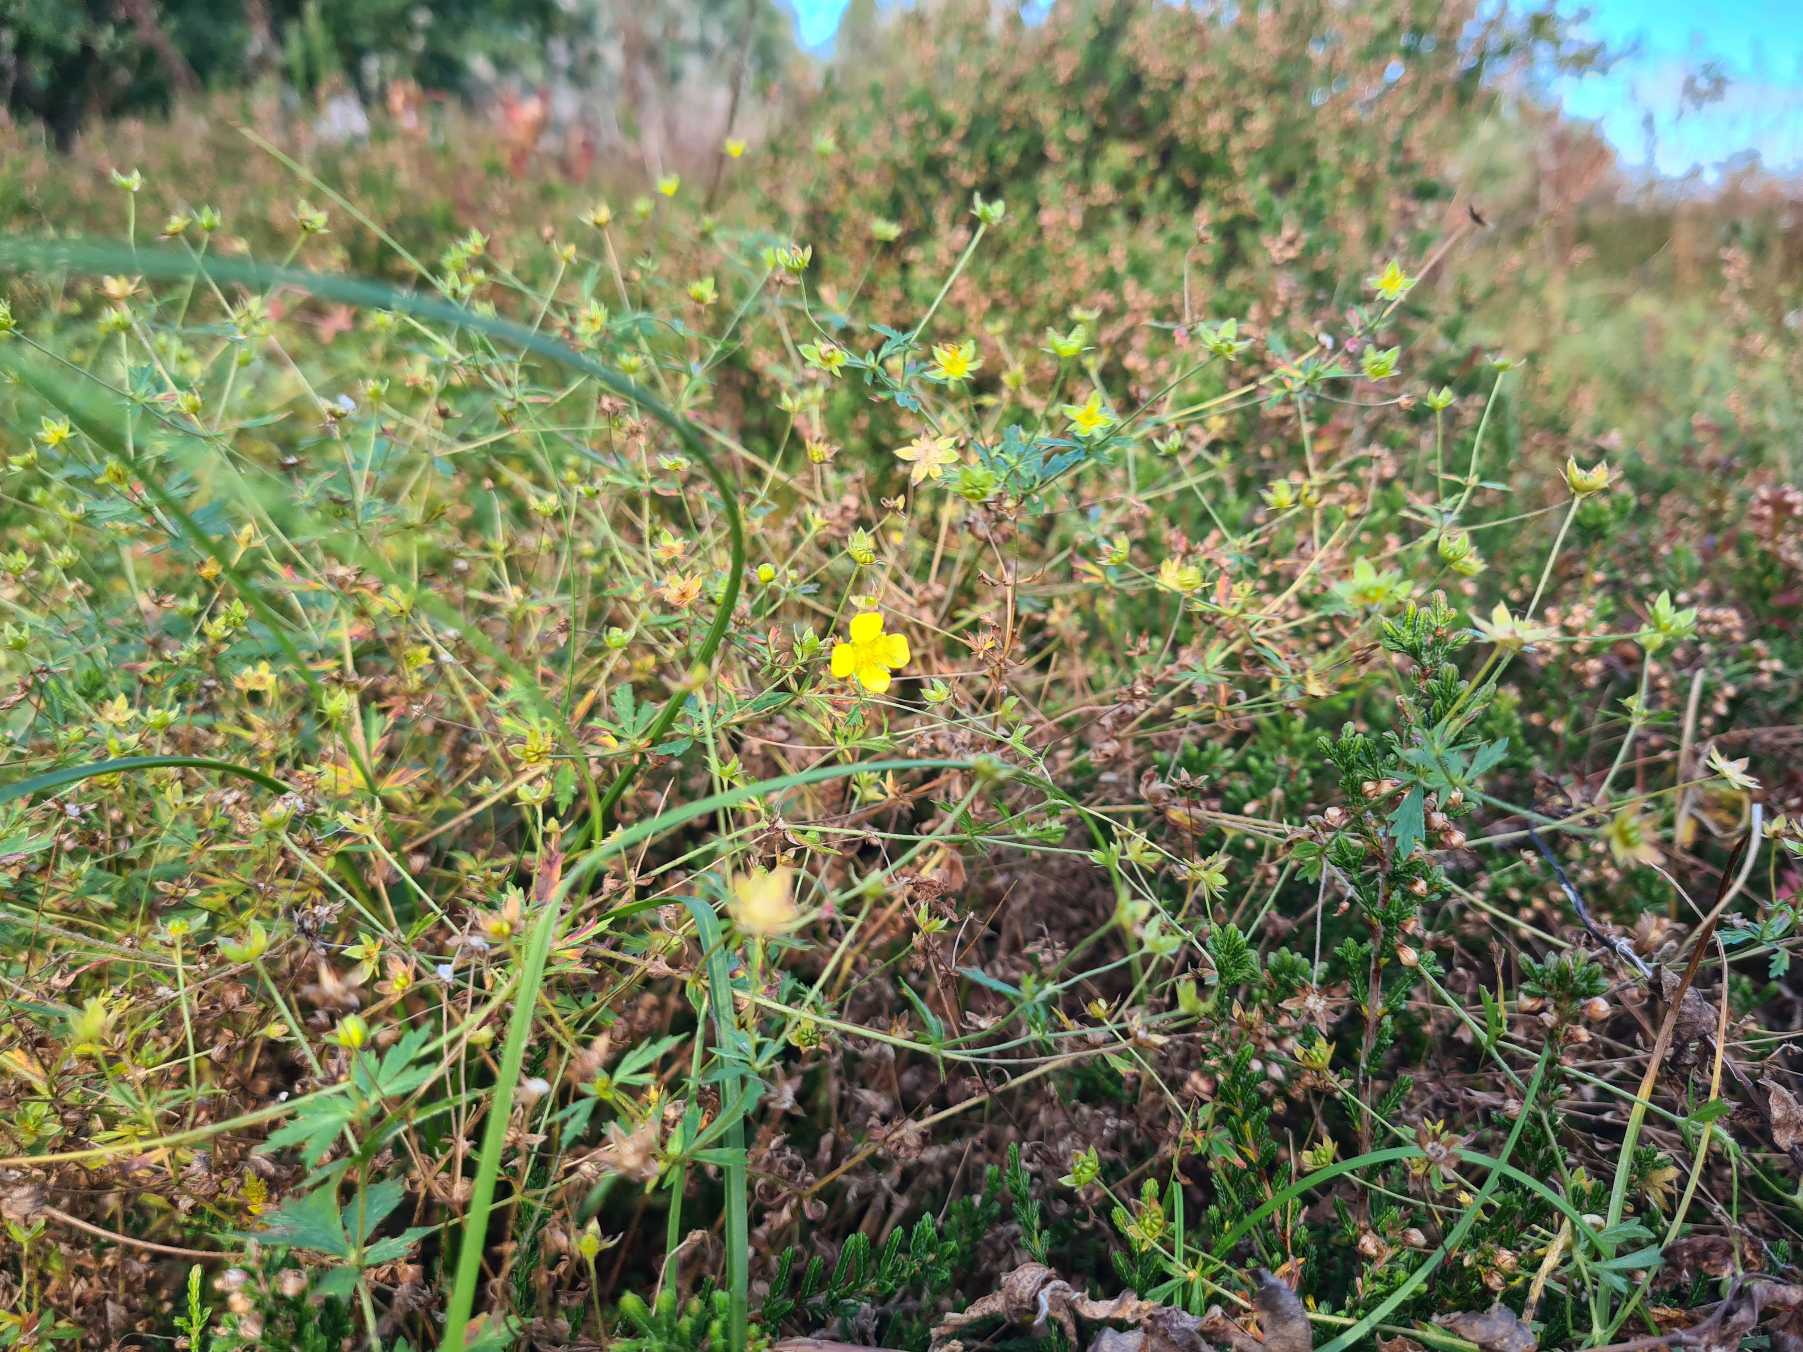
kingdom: Plantae
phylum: Tracheophyta
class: Magnoliopsida
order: Rosales
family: Rosaceae
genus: Potentilla
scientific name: Potentilla erecta
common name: Tormentil
